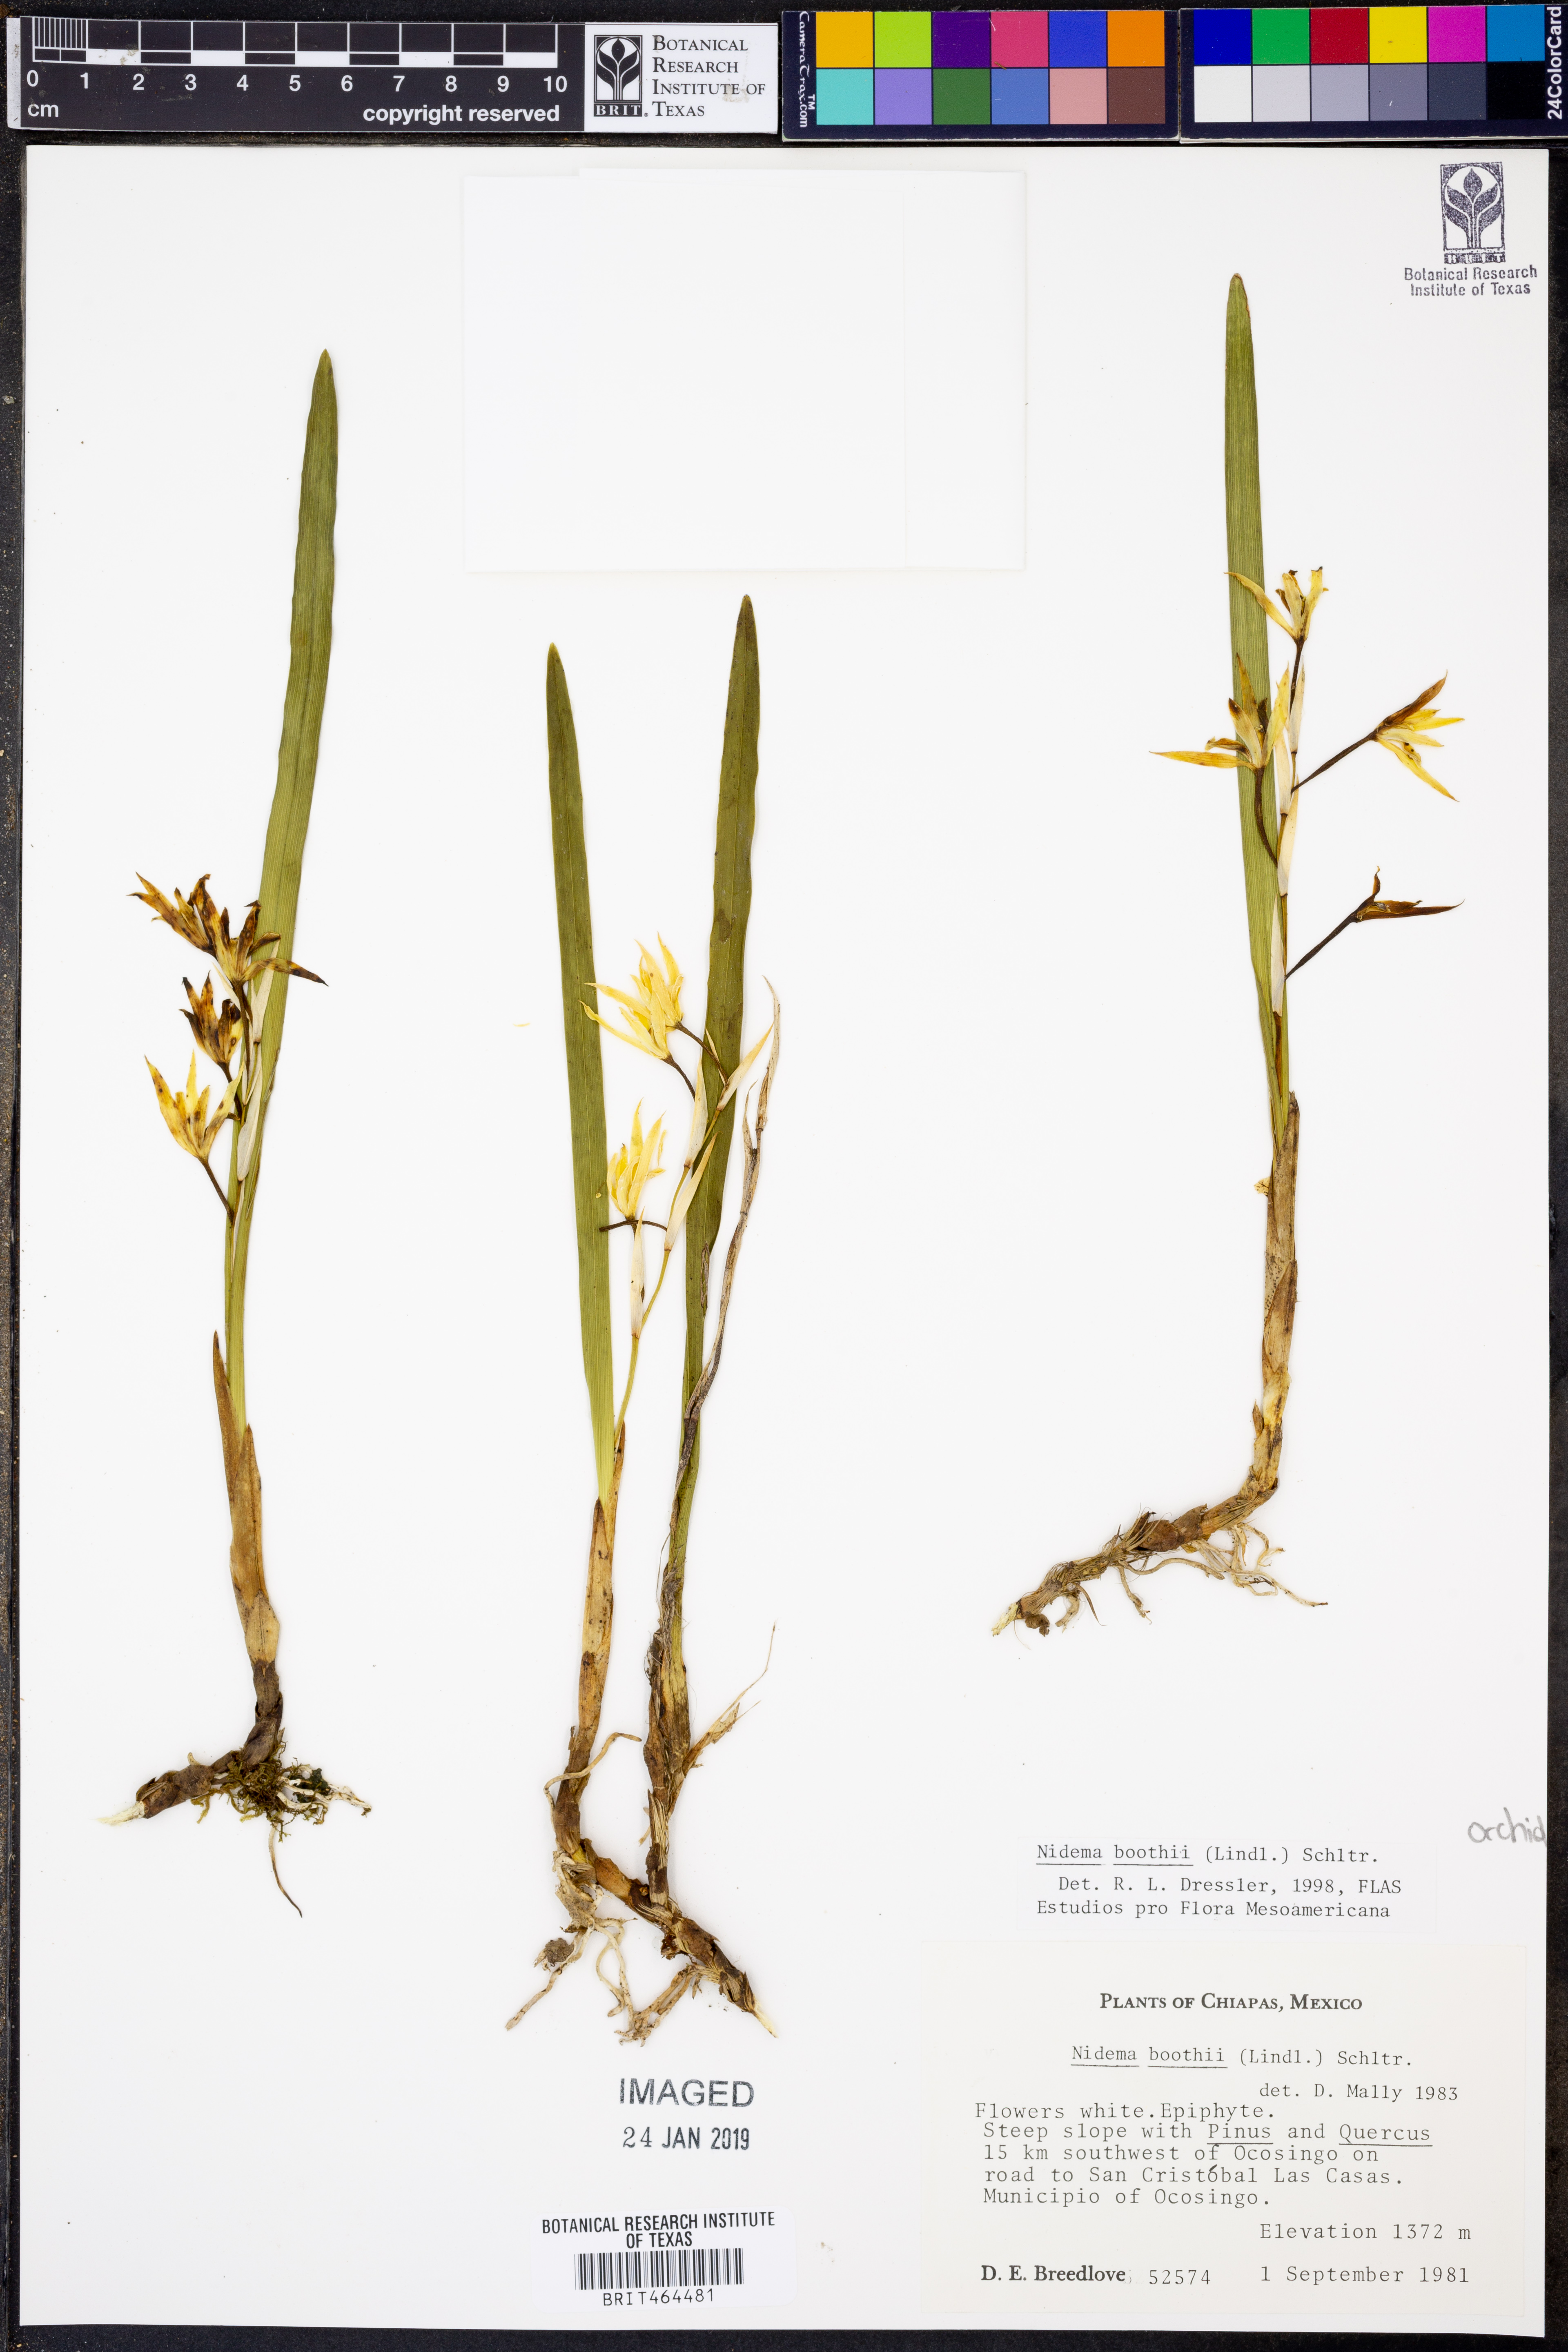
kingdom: Plantae
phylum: Tracheophyta
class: Liliopsida
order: Asparagales
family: Orchidaceae
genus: Nidema
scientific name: Nidema boothii
